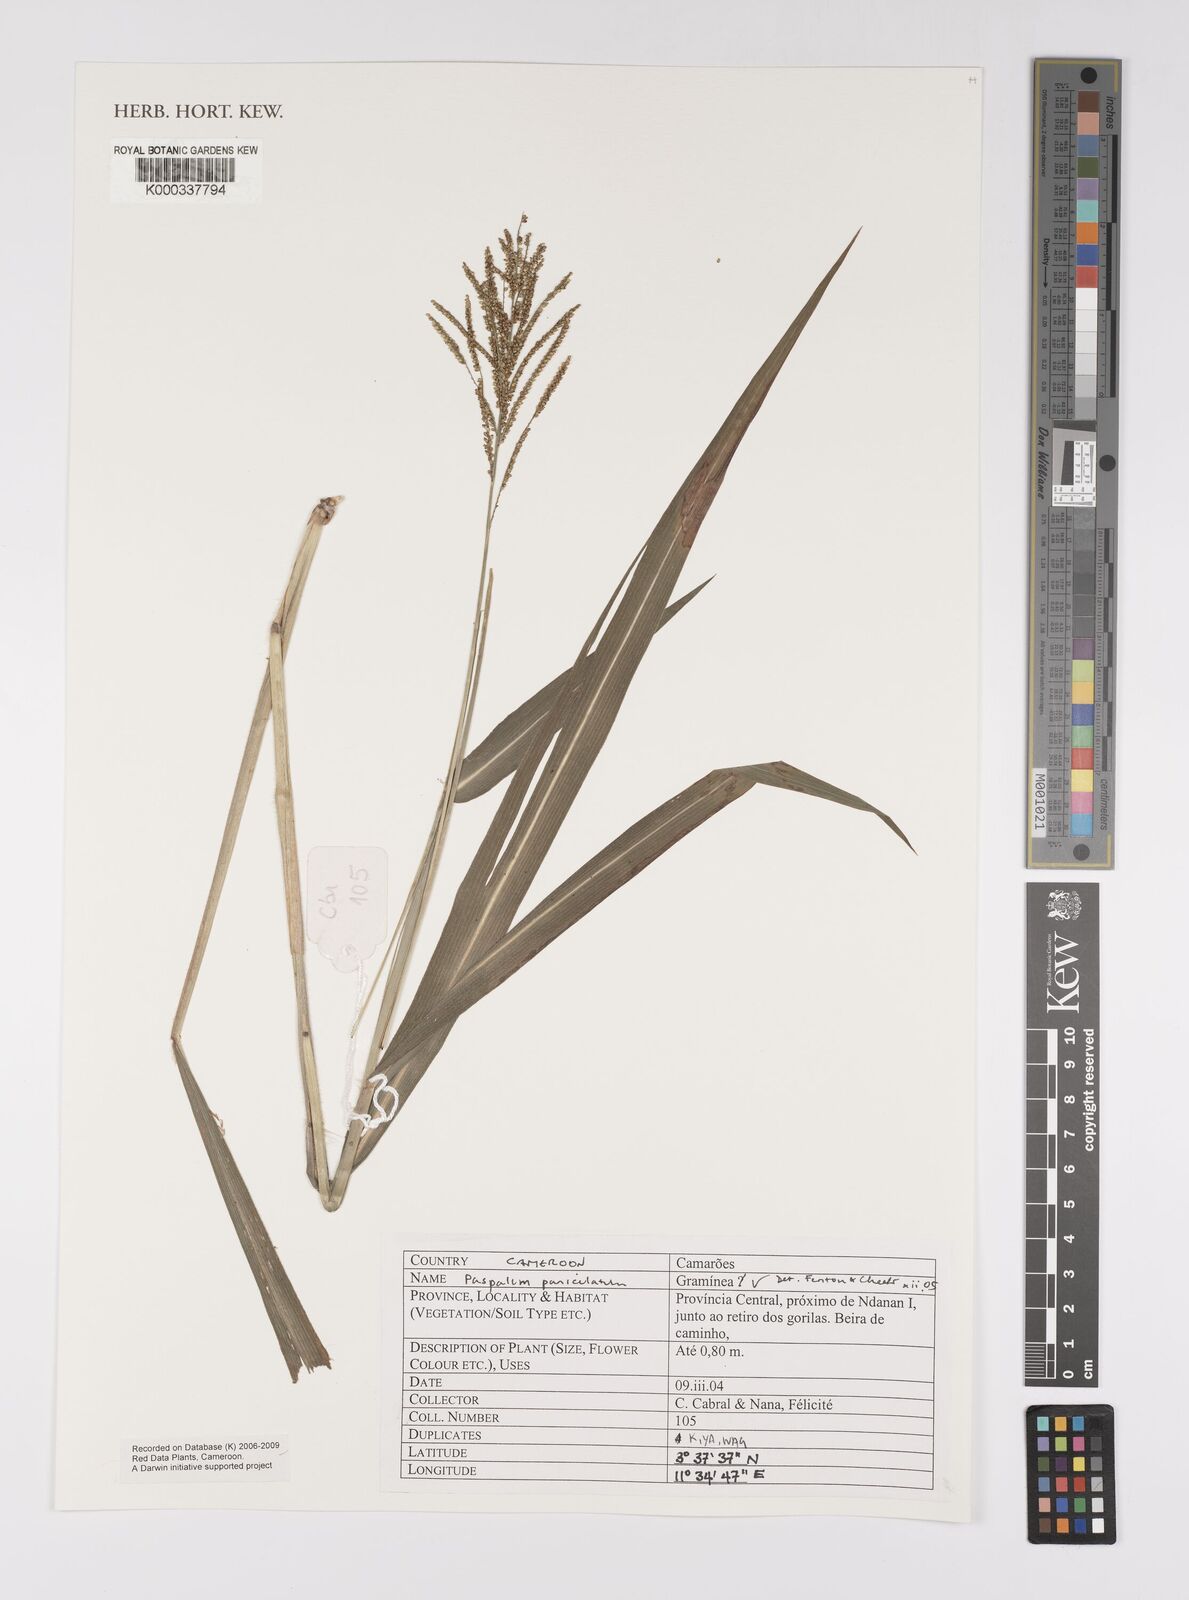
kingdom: Plantae
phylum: Tracheophyta
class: Liliopsida
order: Poales
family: Poaceae
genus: Paspalum
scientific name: Paspalum paniculatum
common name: Arrocillo
